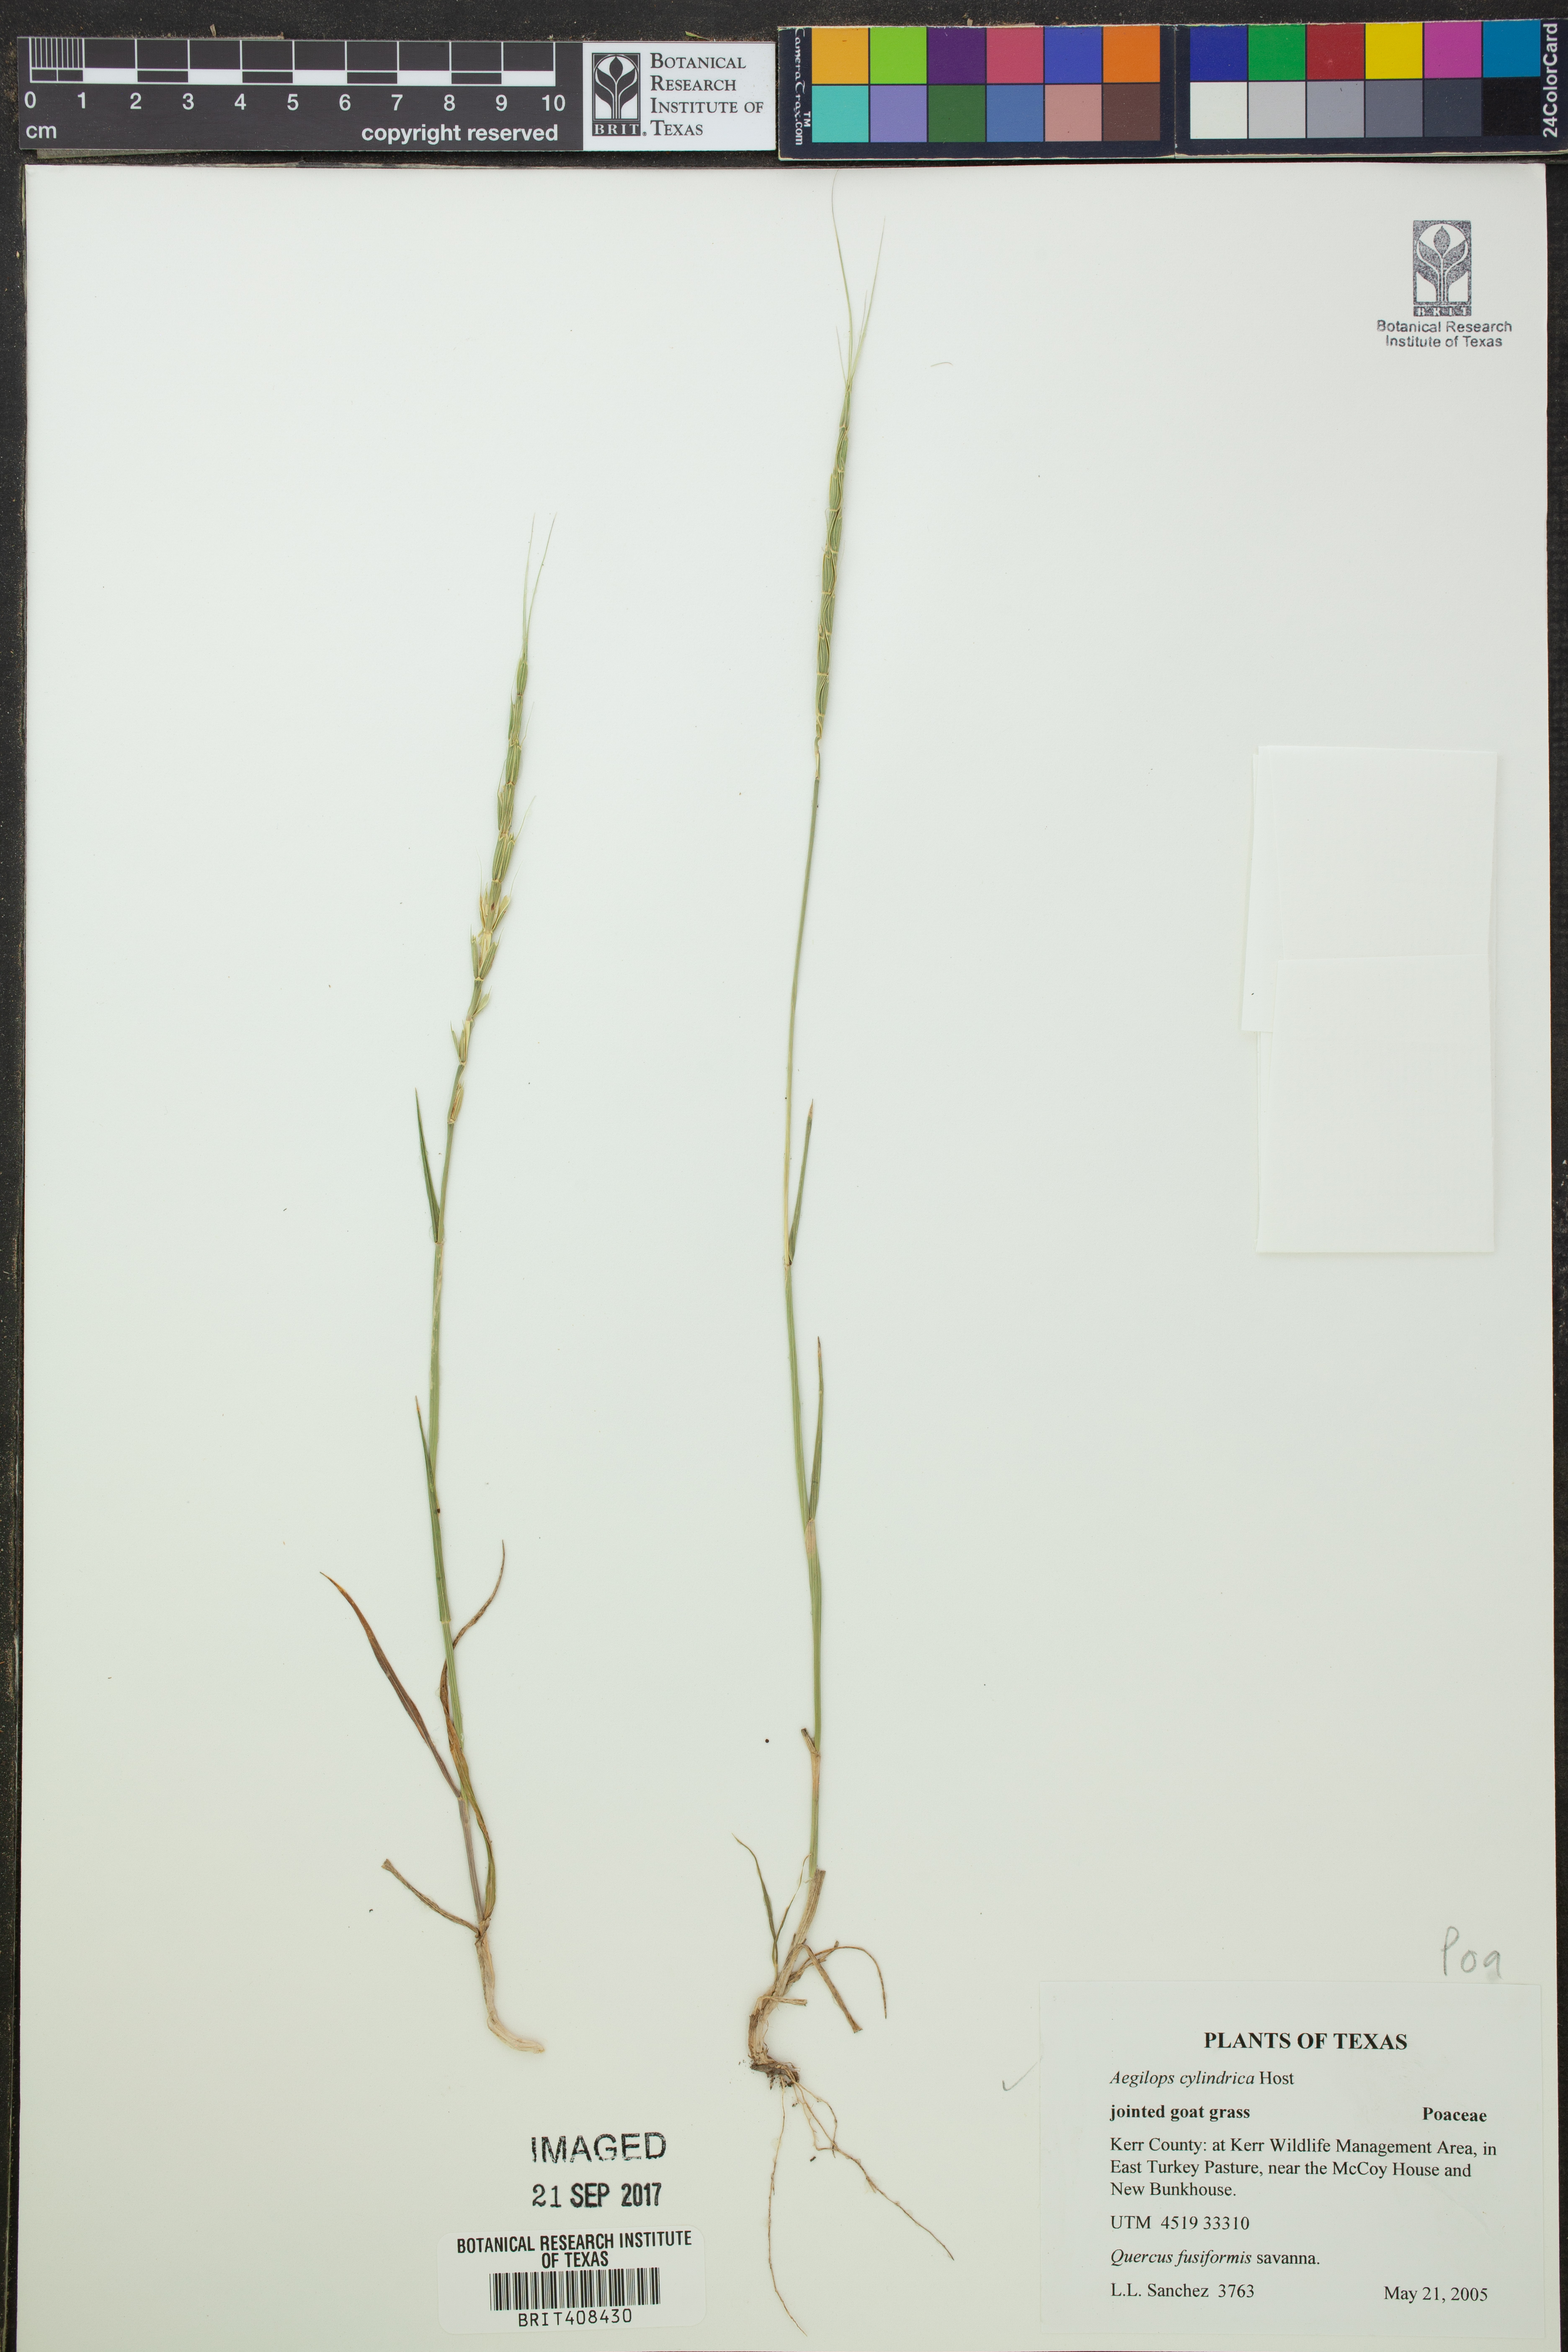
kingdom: Plantae
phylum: Tracheophyta
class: Liliopsida
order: Poales
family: Poaceae
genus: Aegilops
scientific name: Aegilops cylindrica
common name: Jointed goatgrass
